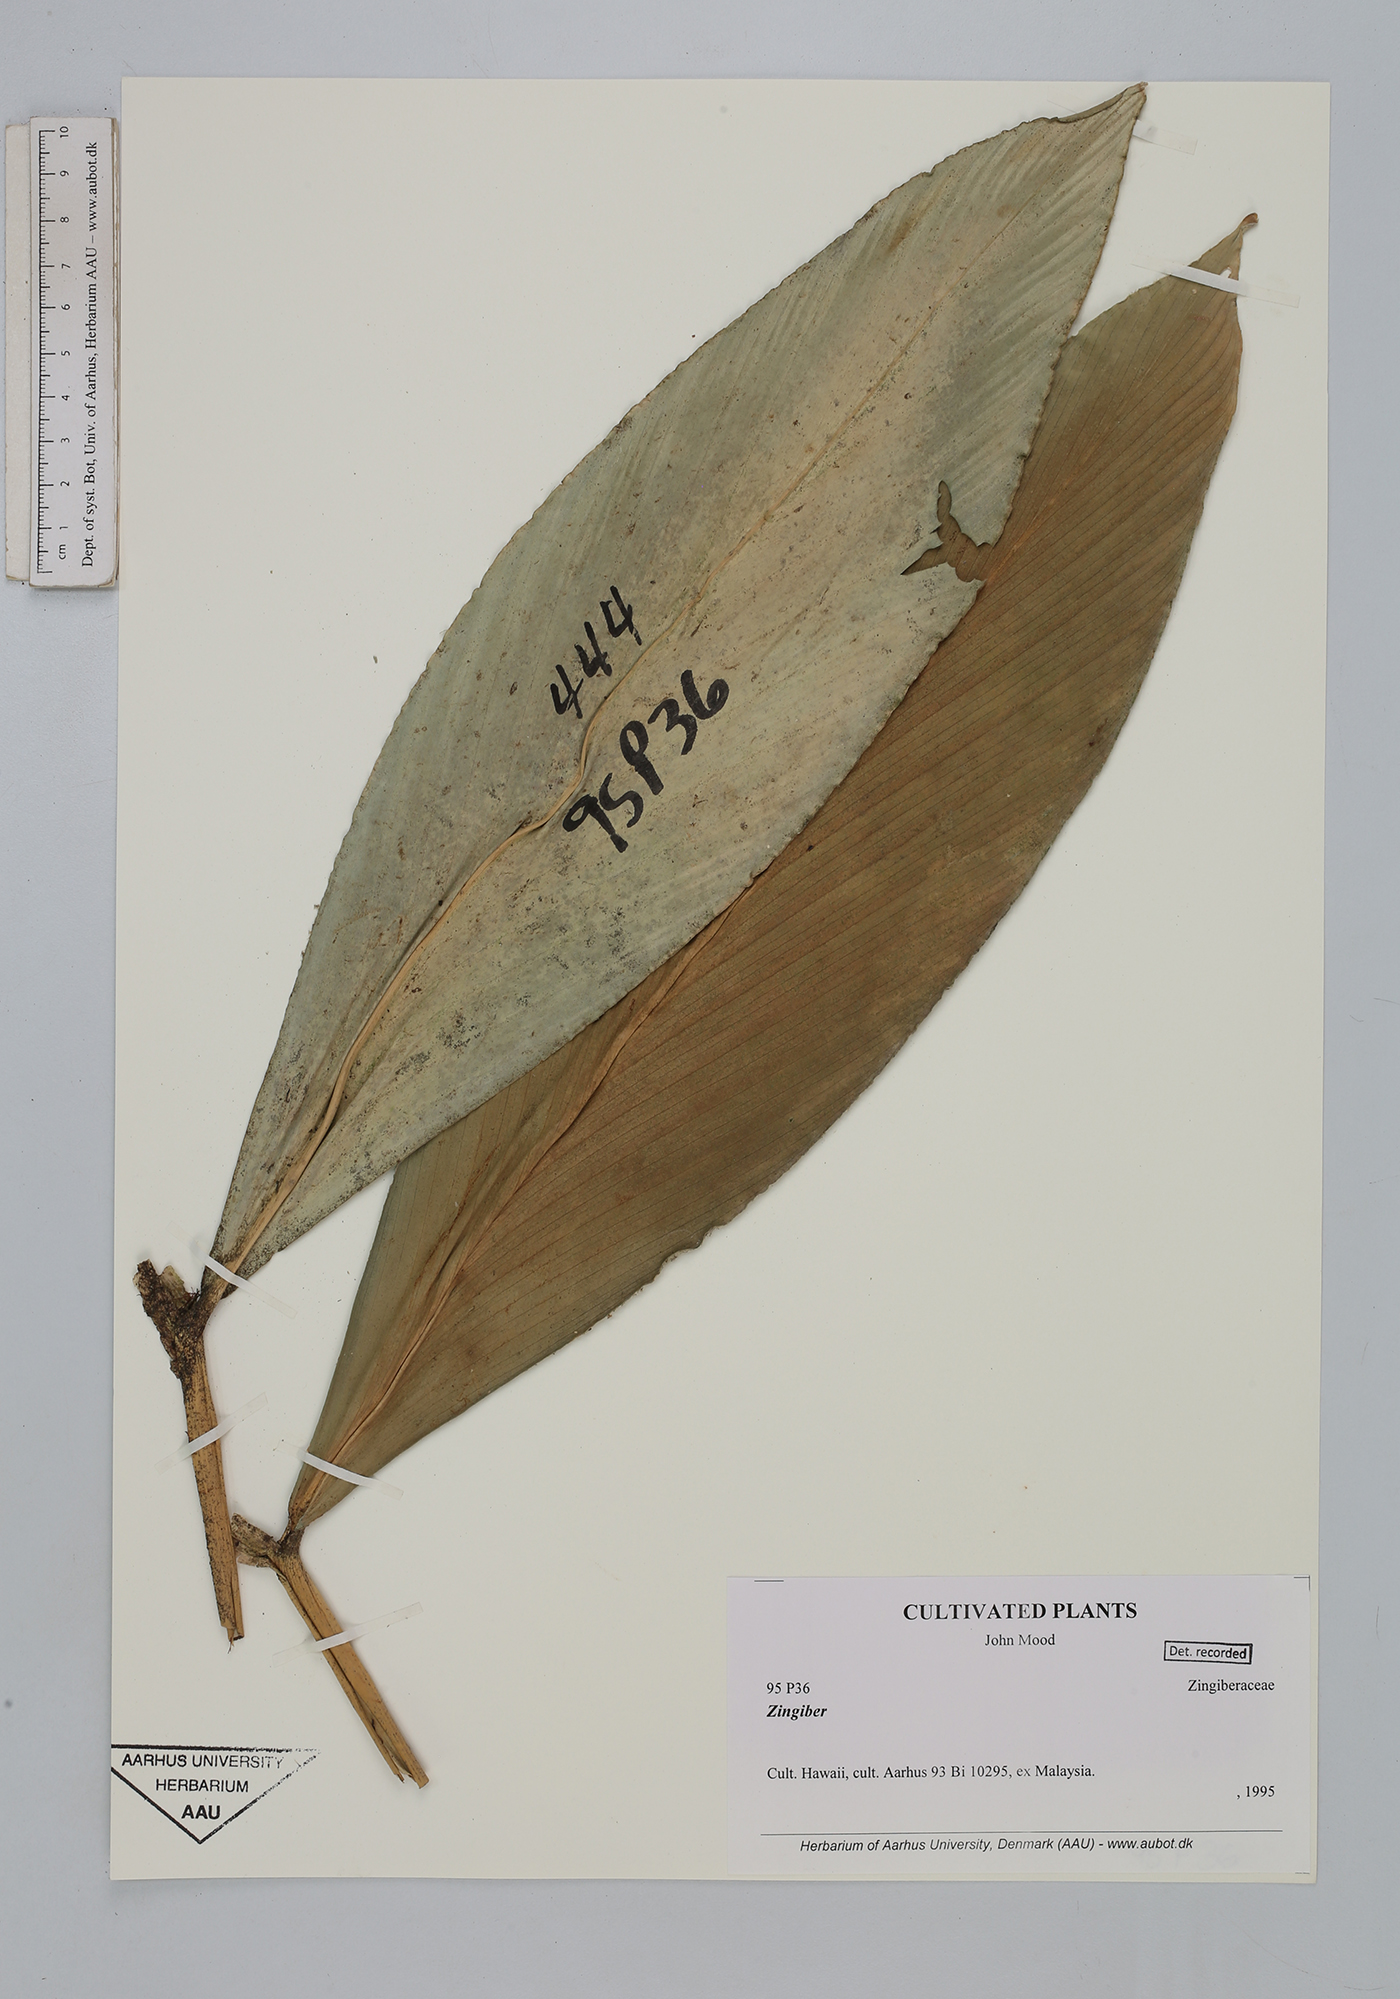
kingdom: Plantae
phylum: Tracheophyta
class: Liliopsida
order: Zingiberales
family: Zingiberaceae
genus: Zingiber
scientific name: Zingiber
